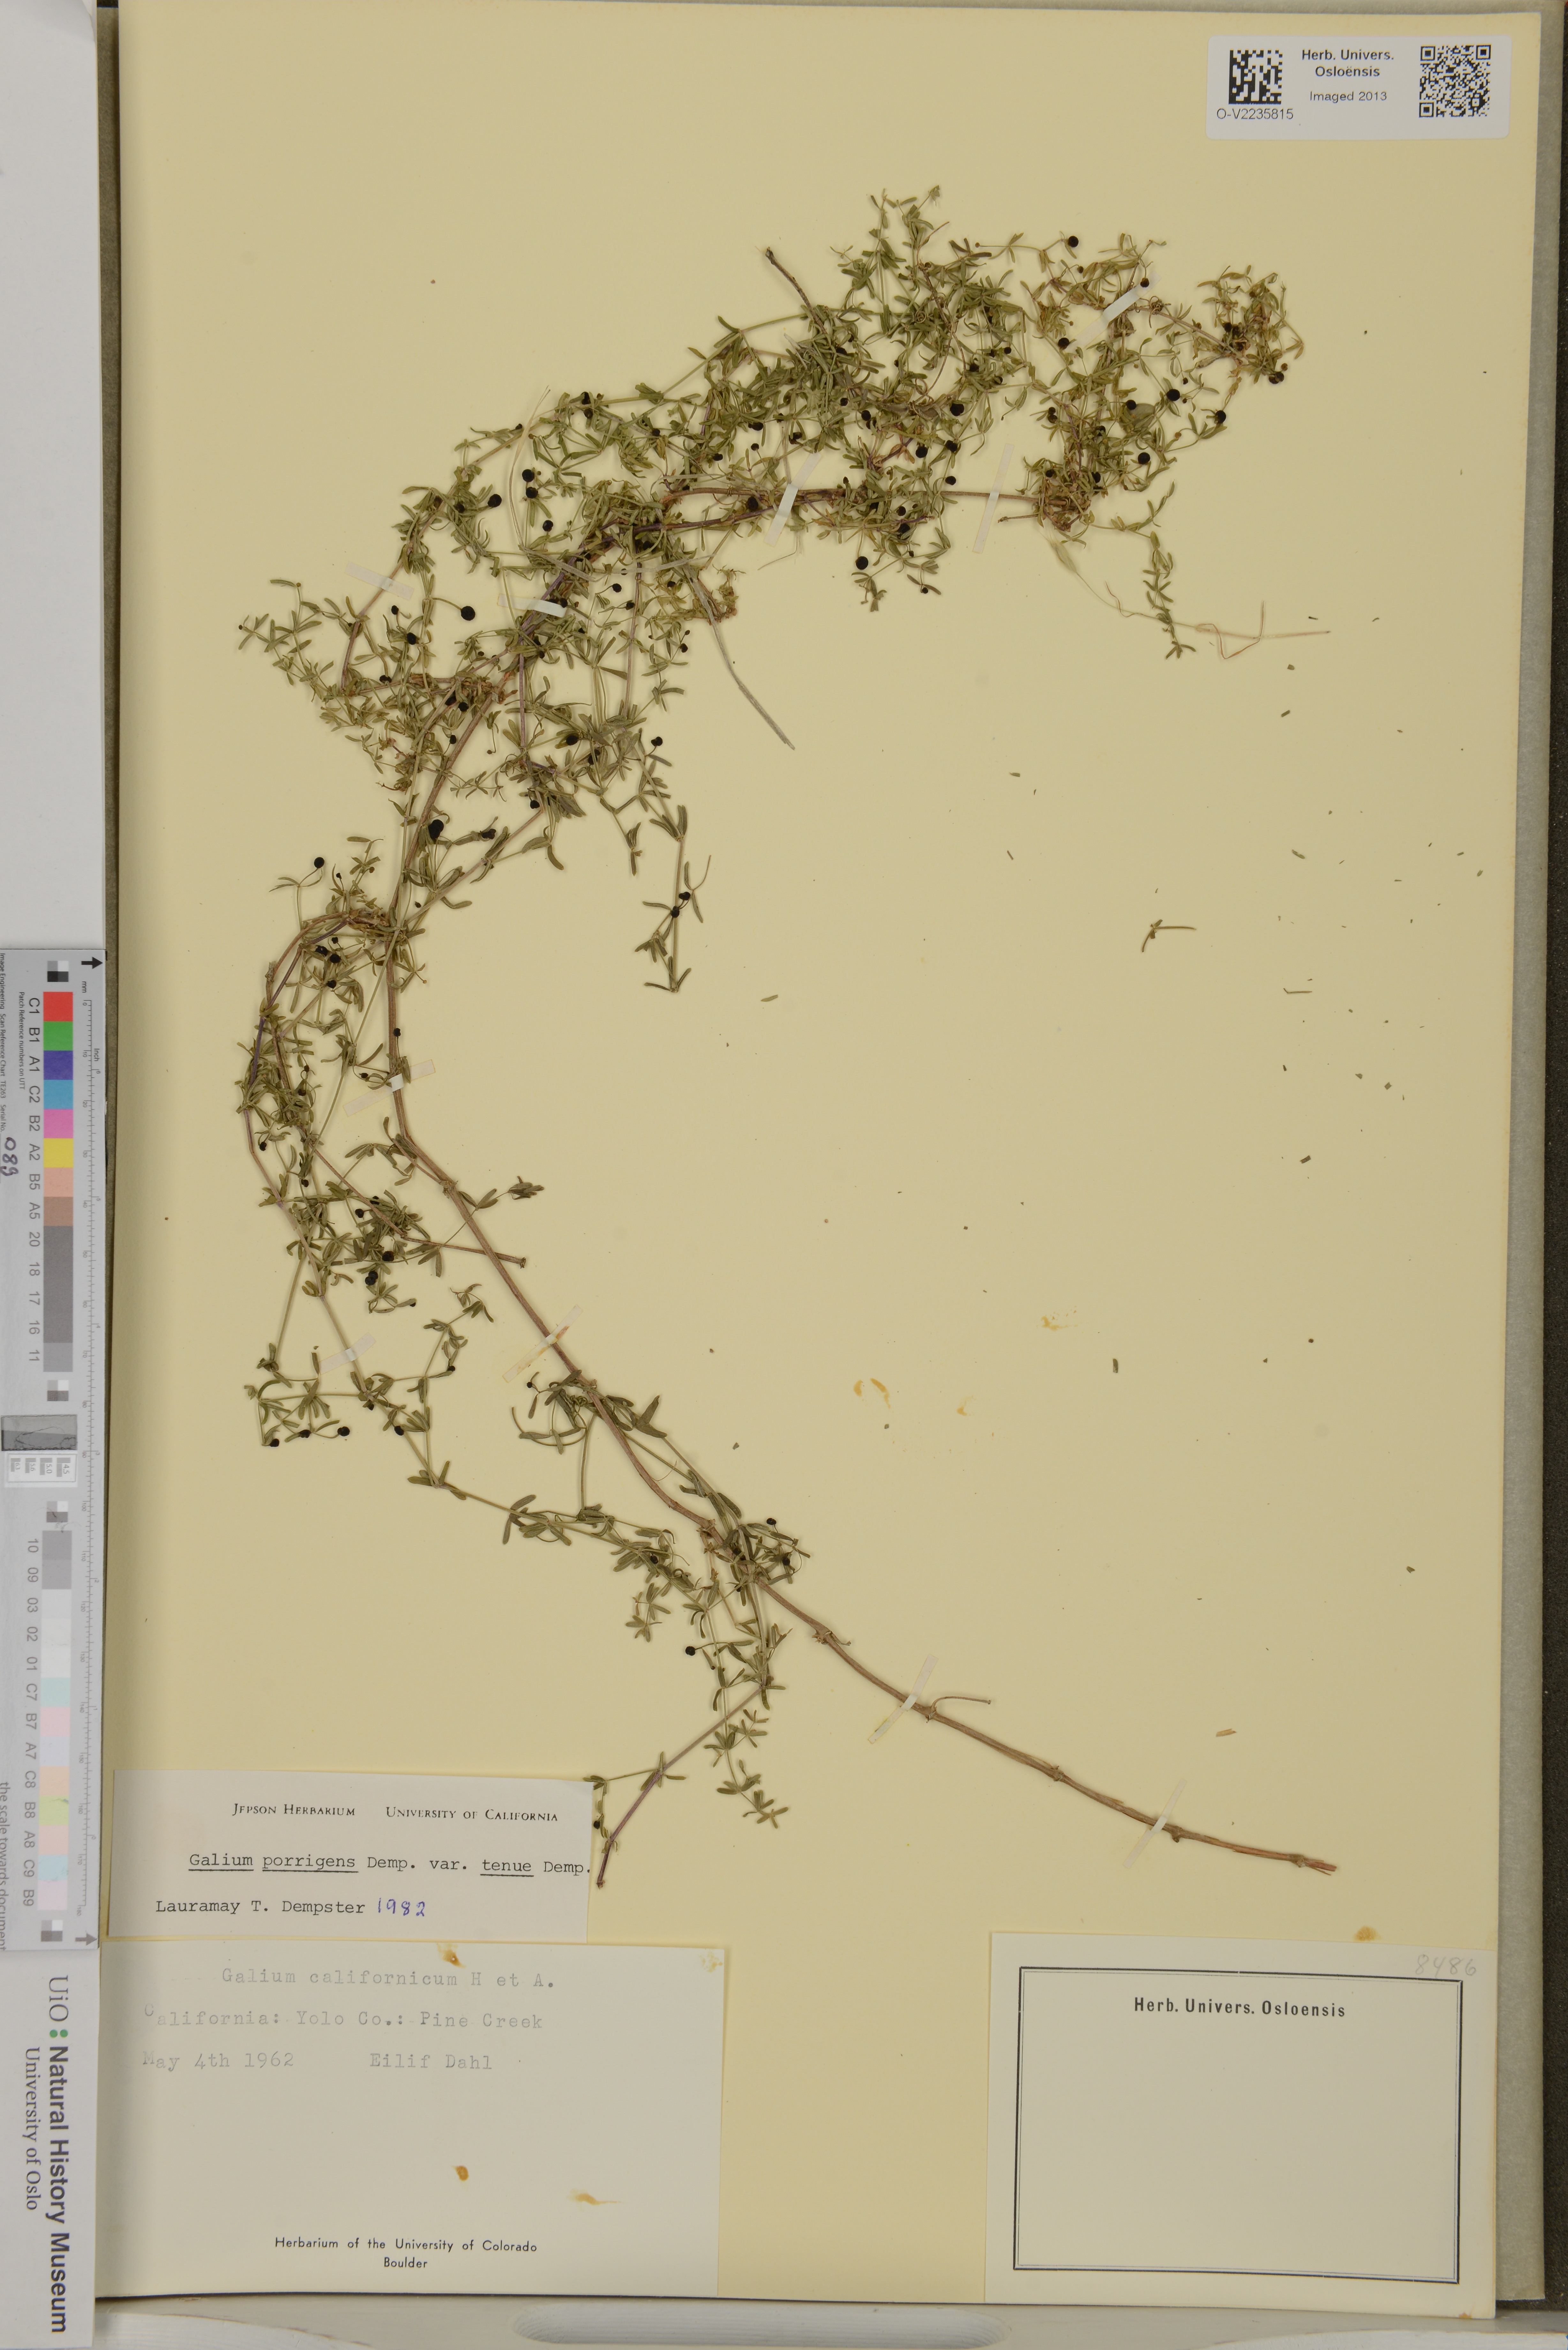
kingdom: Plantae
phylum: Tracheophyta
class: Magnoliopsida
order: Gentianales
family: Rubiaceae
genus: Galium
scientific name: Galium porrigens
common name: Climbing bedstraw
